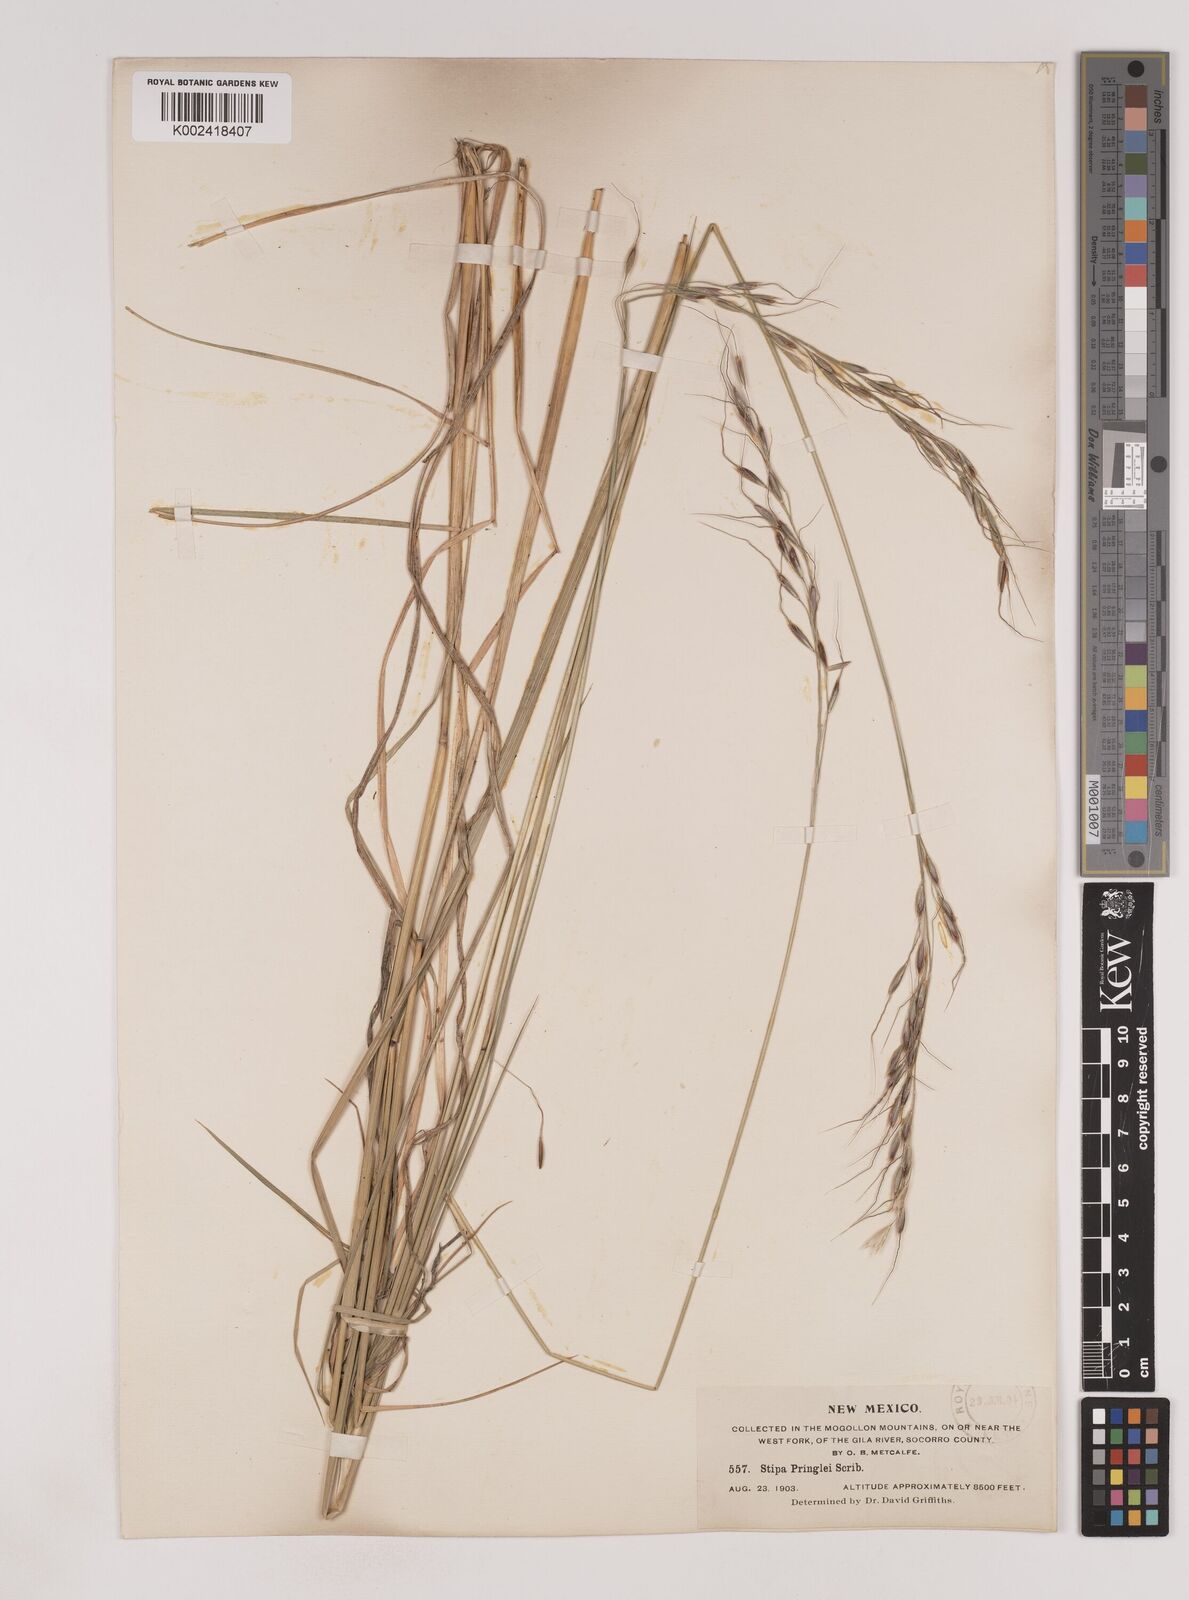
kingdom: Plantae
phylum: Tracheophyta
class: Liliopsida
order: Poales
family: Poaceae
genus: Piptochaetium
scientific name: Piptochaetium pringlei
